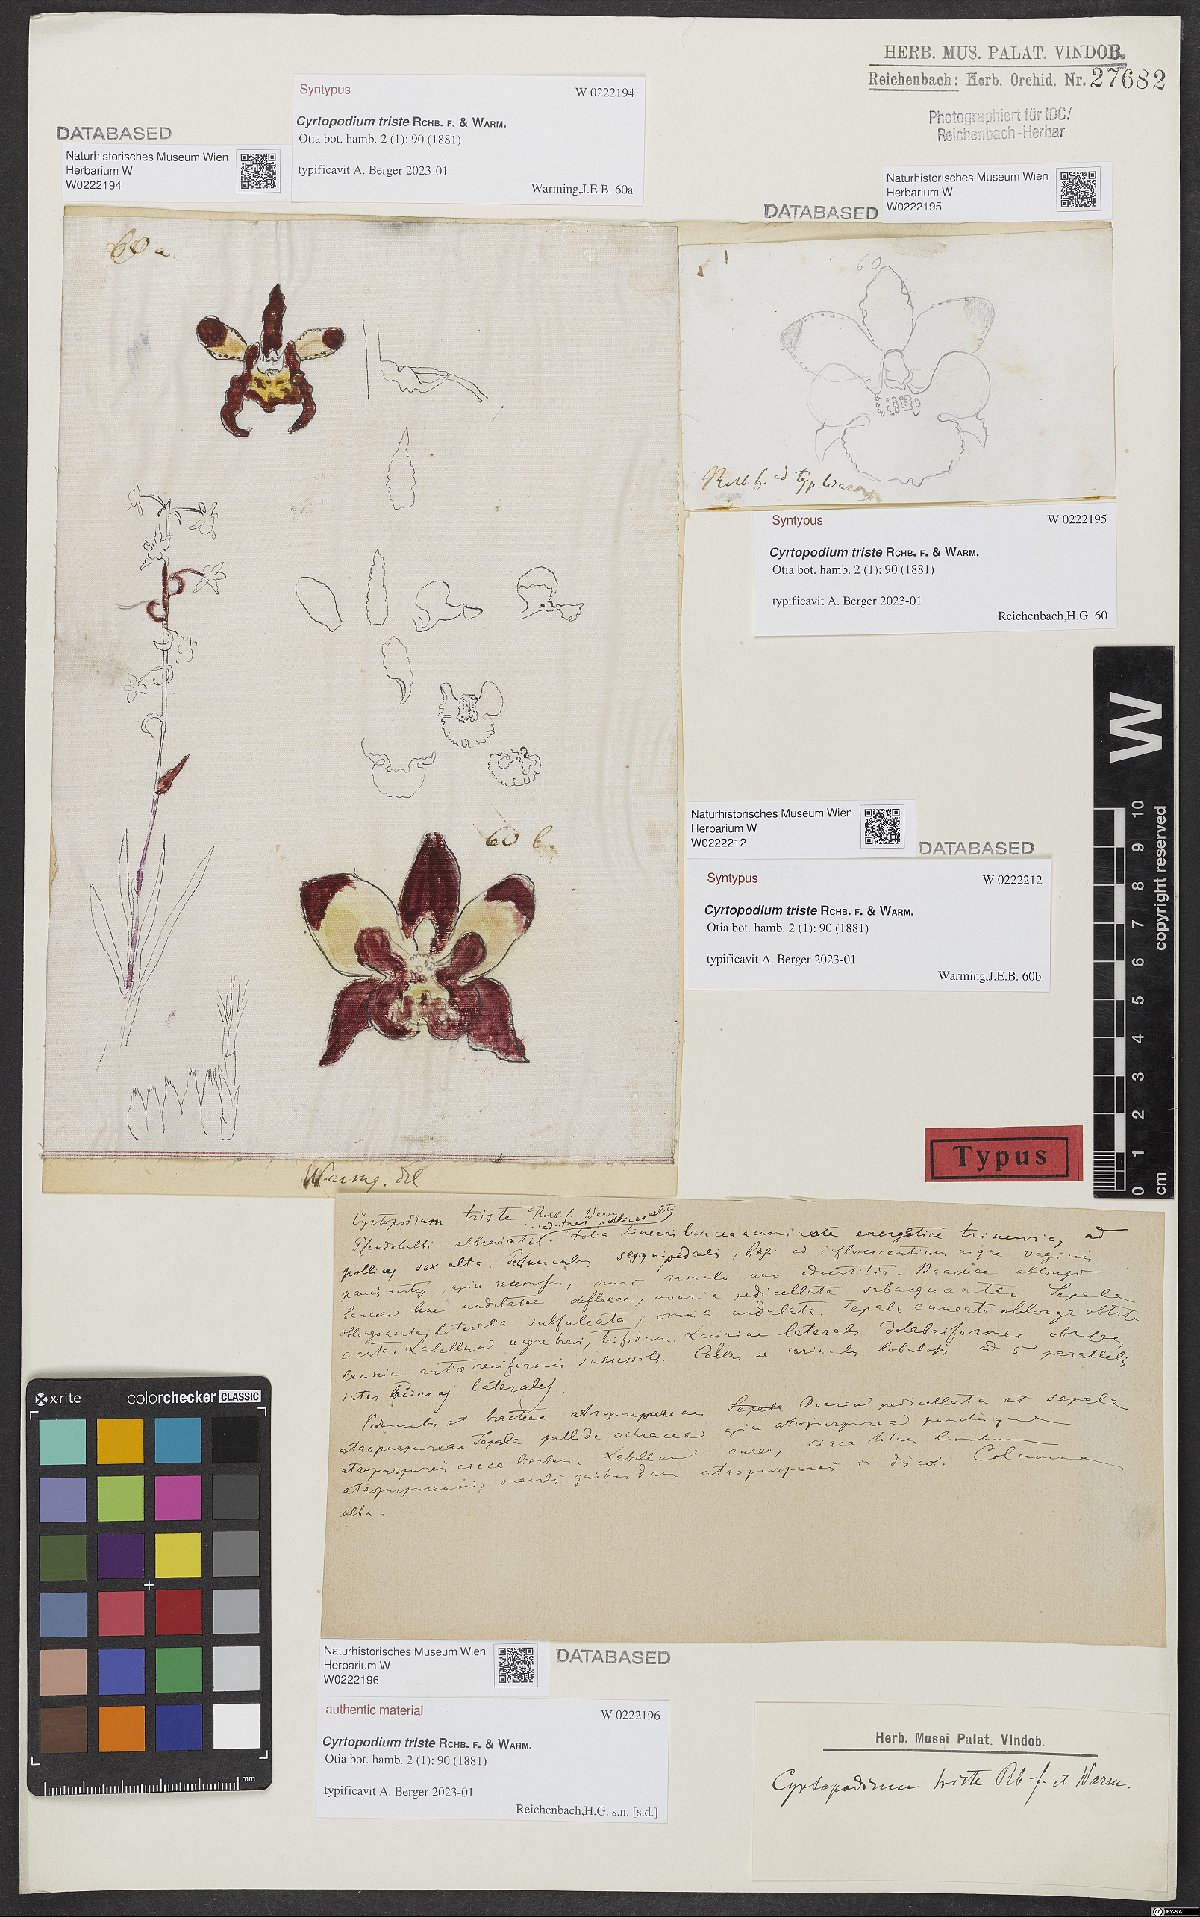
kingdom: Plantae
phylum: Tracheophyta
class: Liliopsida
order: Asparagales
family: Orchidaceae
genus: Cyrtopodium
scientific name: Cyrtopodium triste
